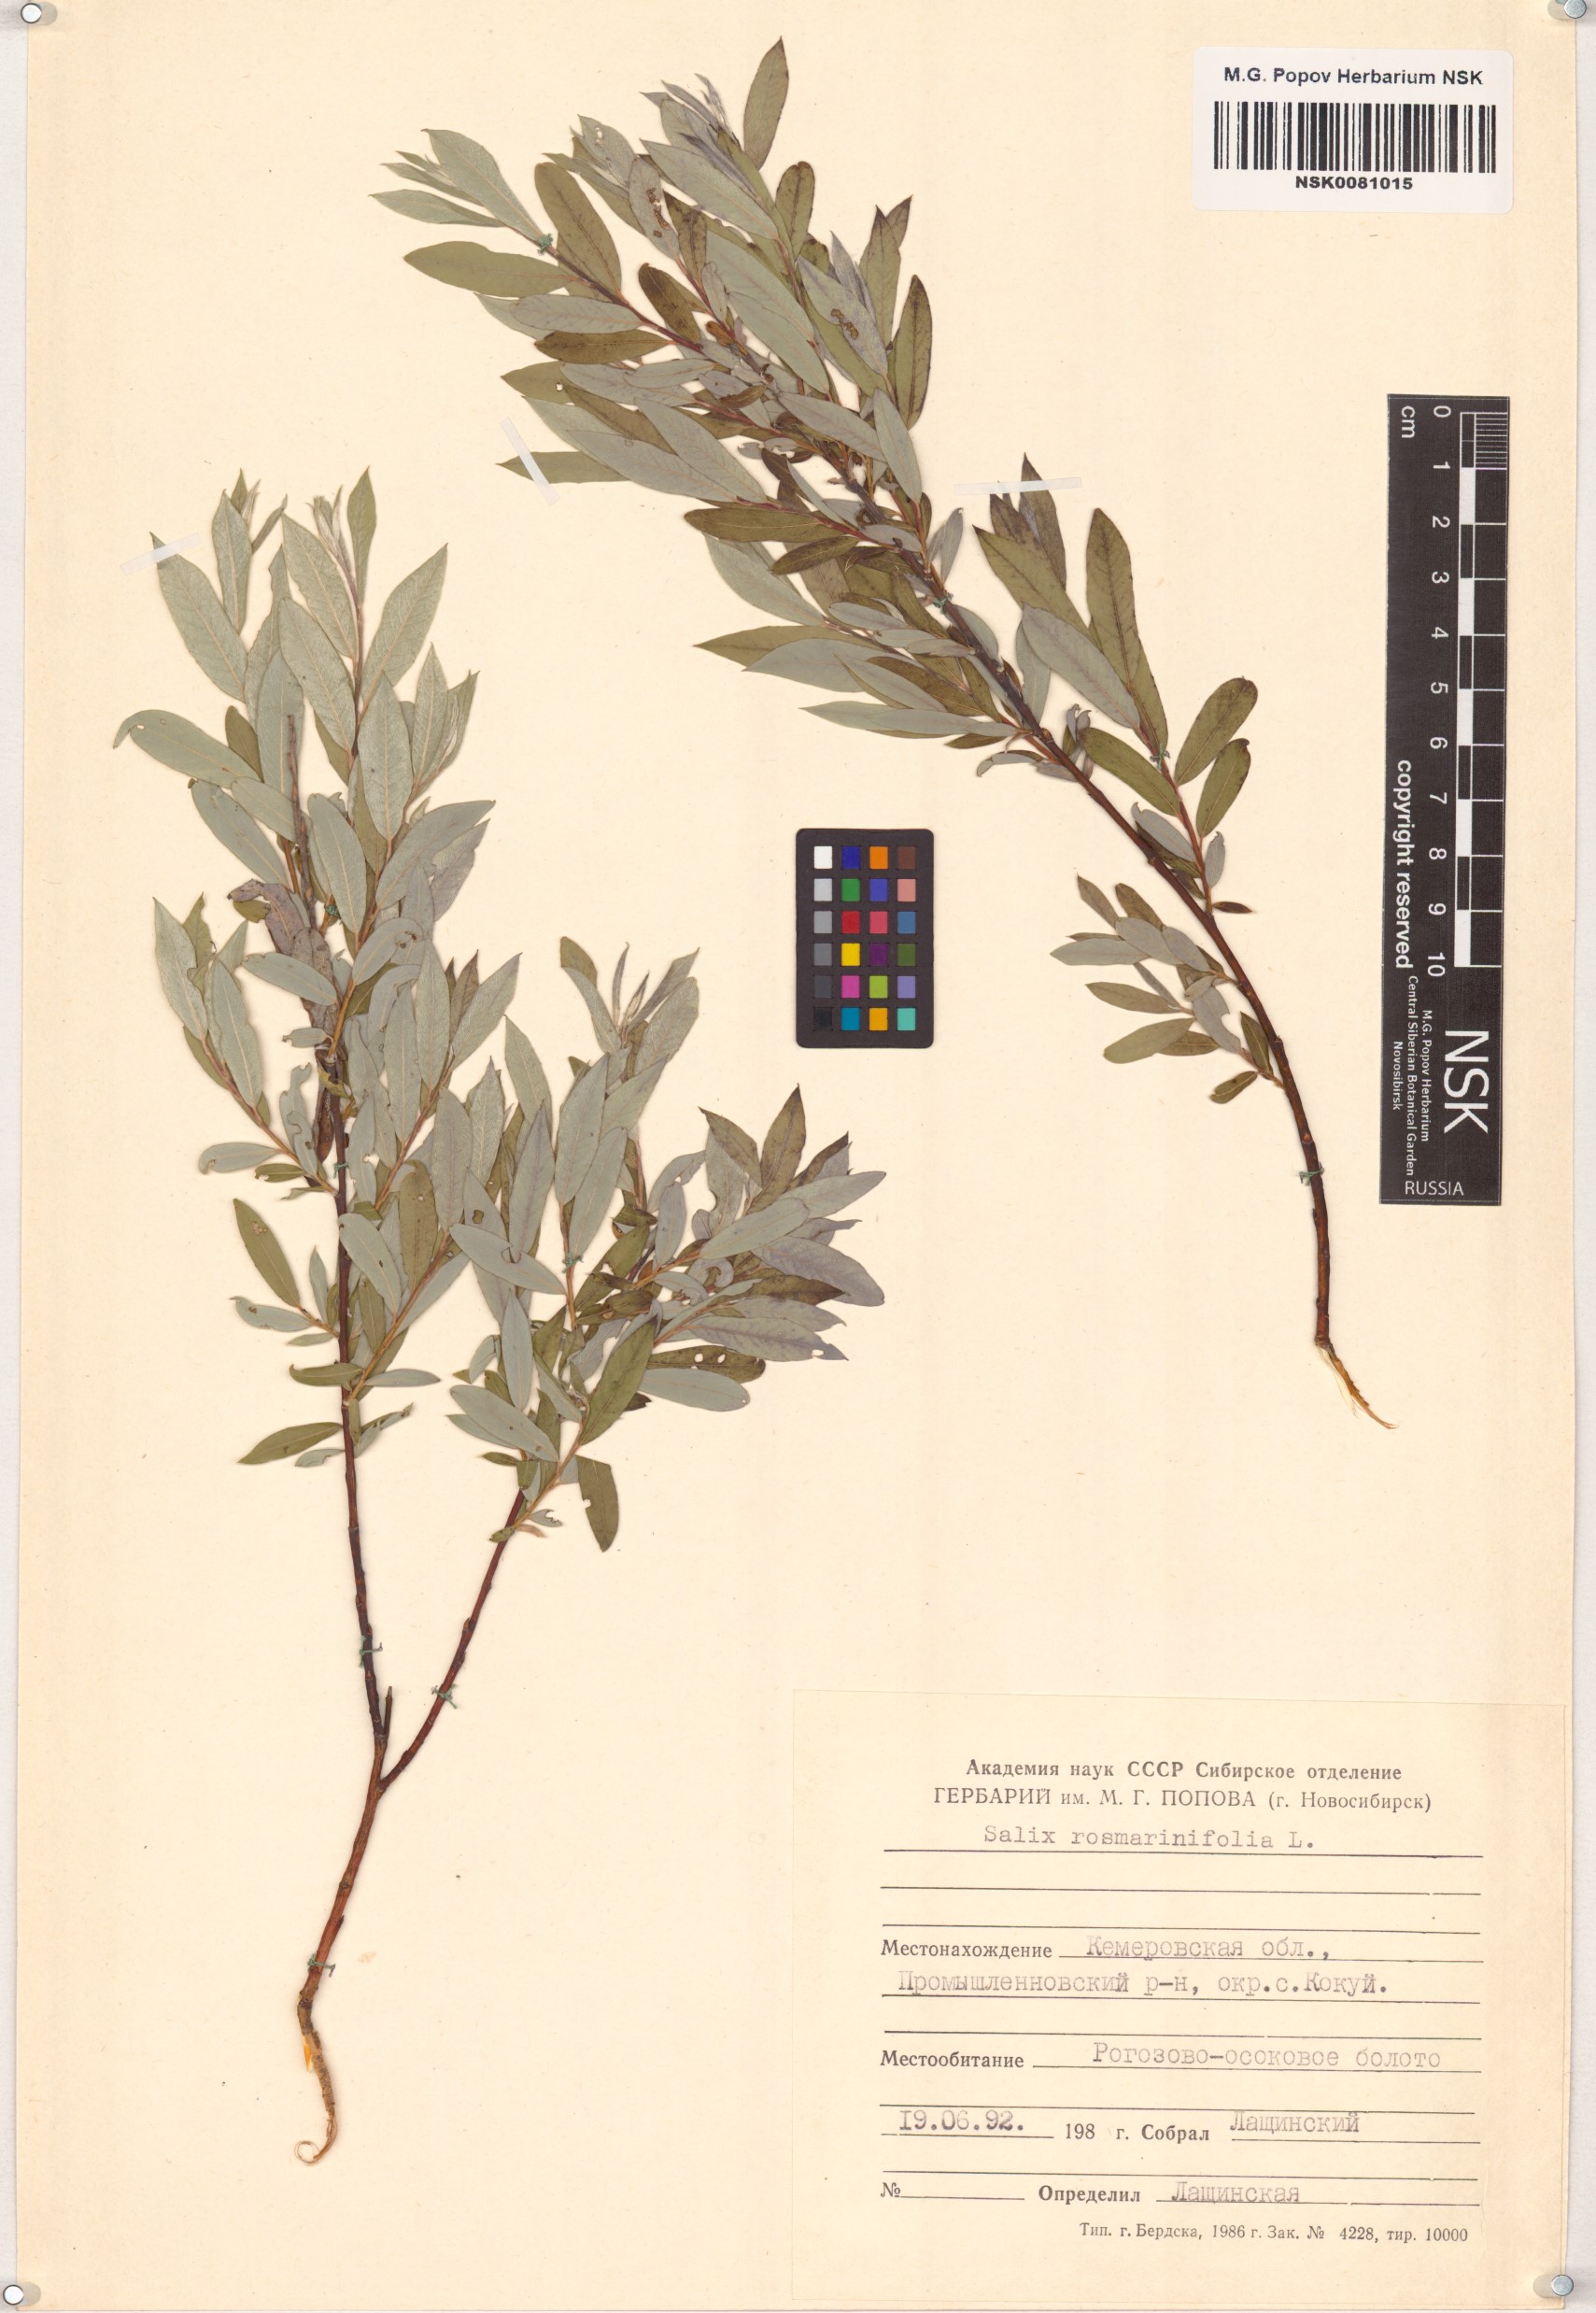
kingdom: Plantae
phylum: Tracheophyta
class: Magnoliopsida
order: Malpighiales
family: Salicaceae
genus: Salix
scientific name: Salix rosmarinifolia
